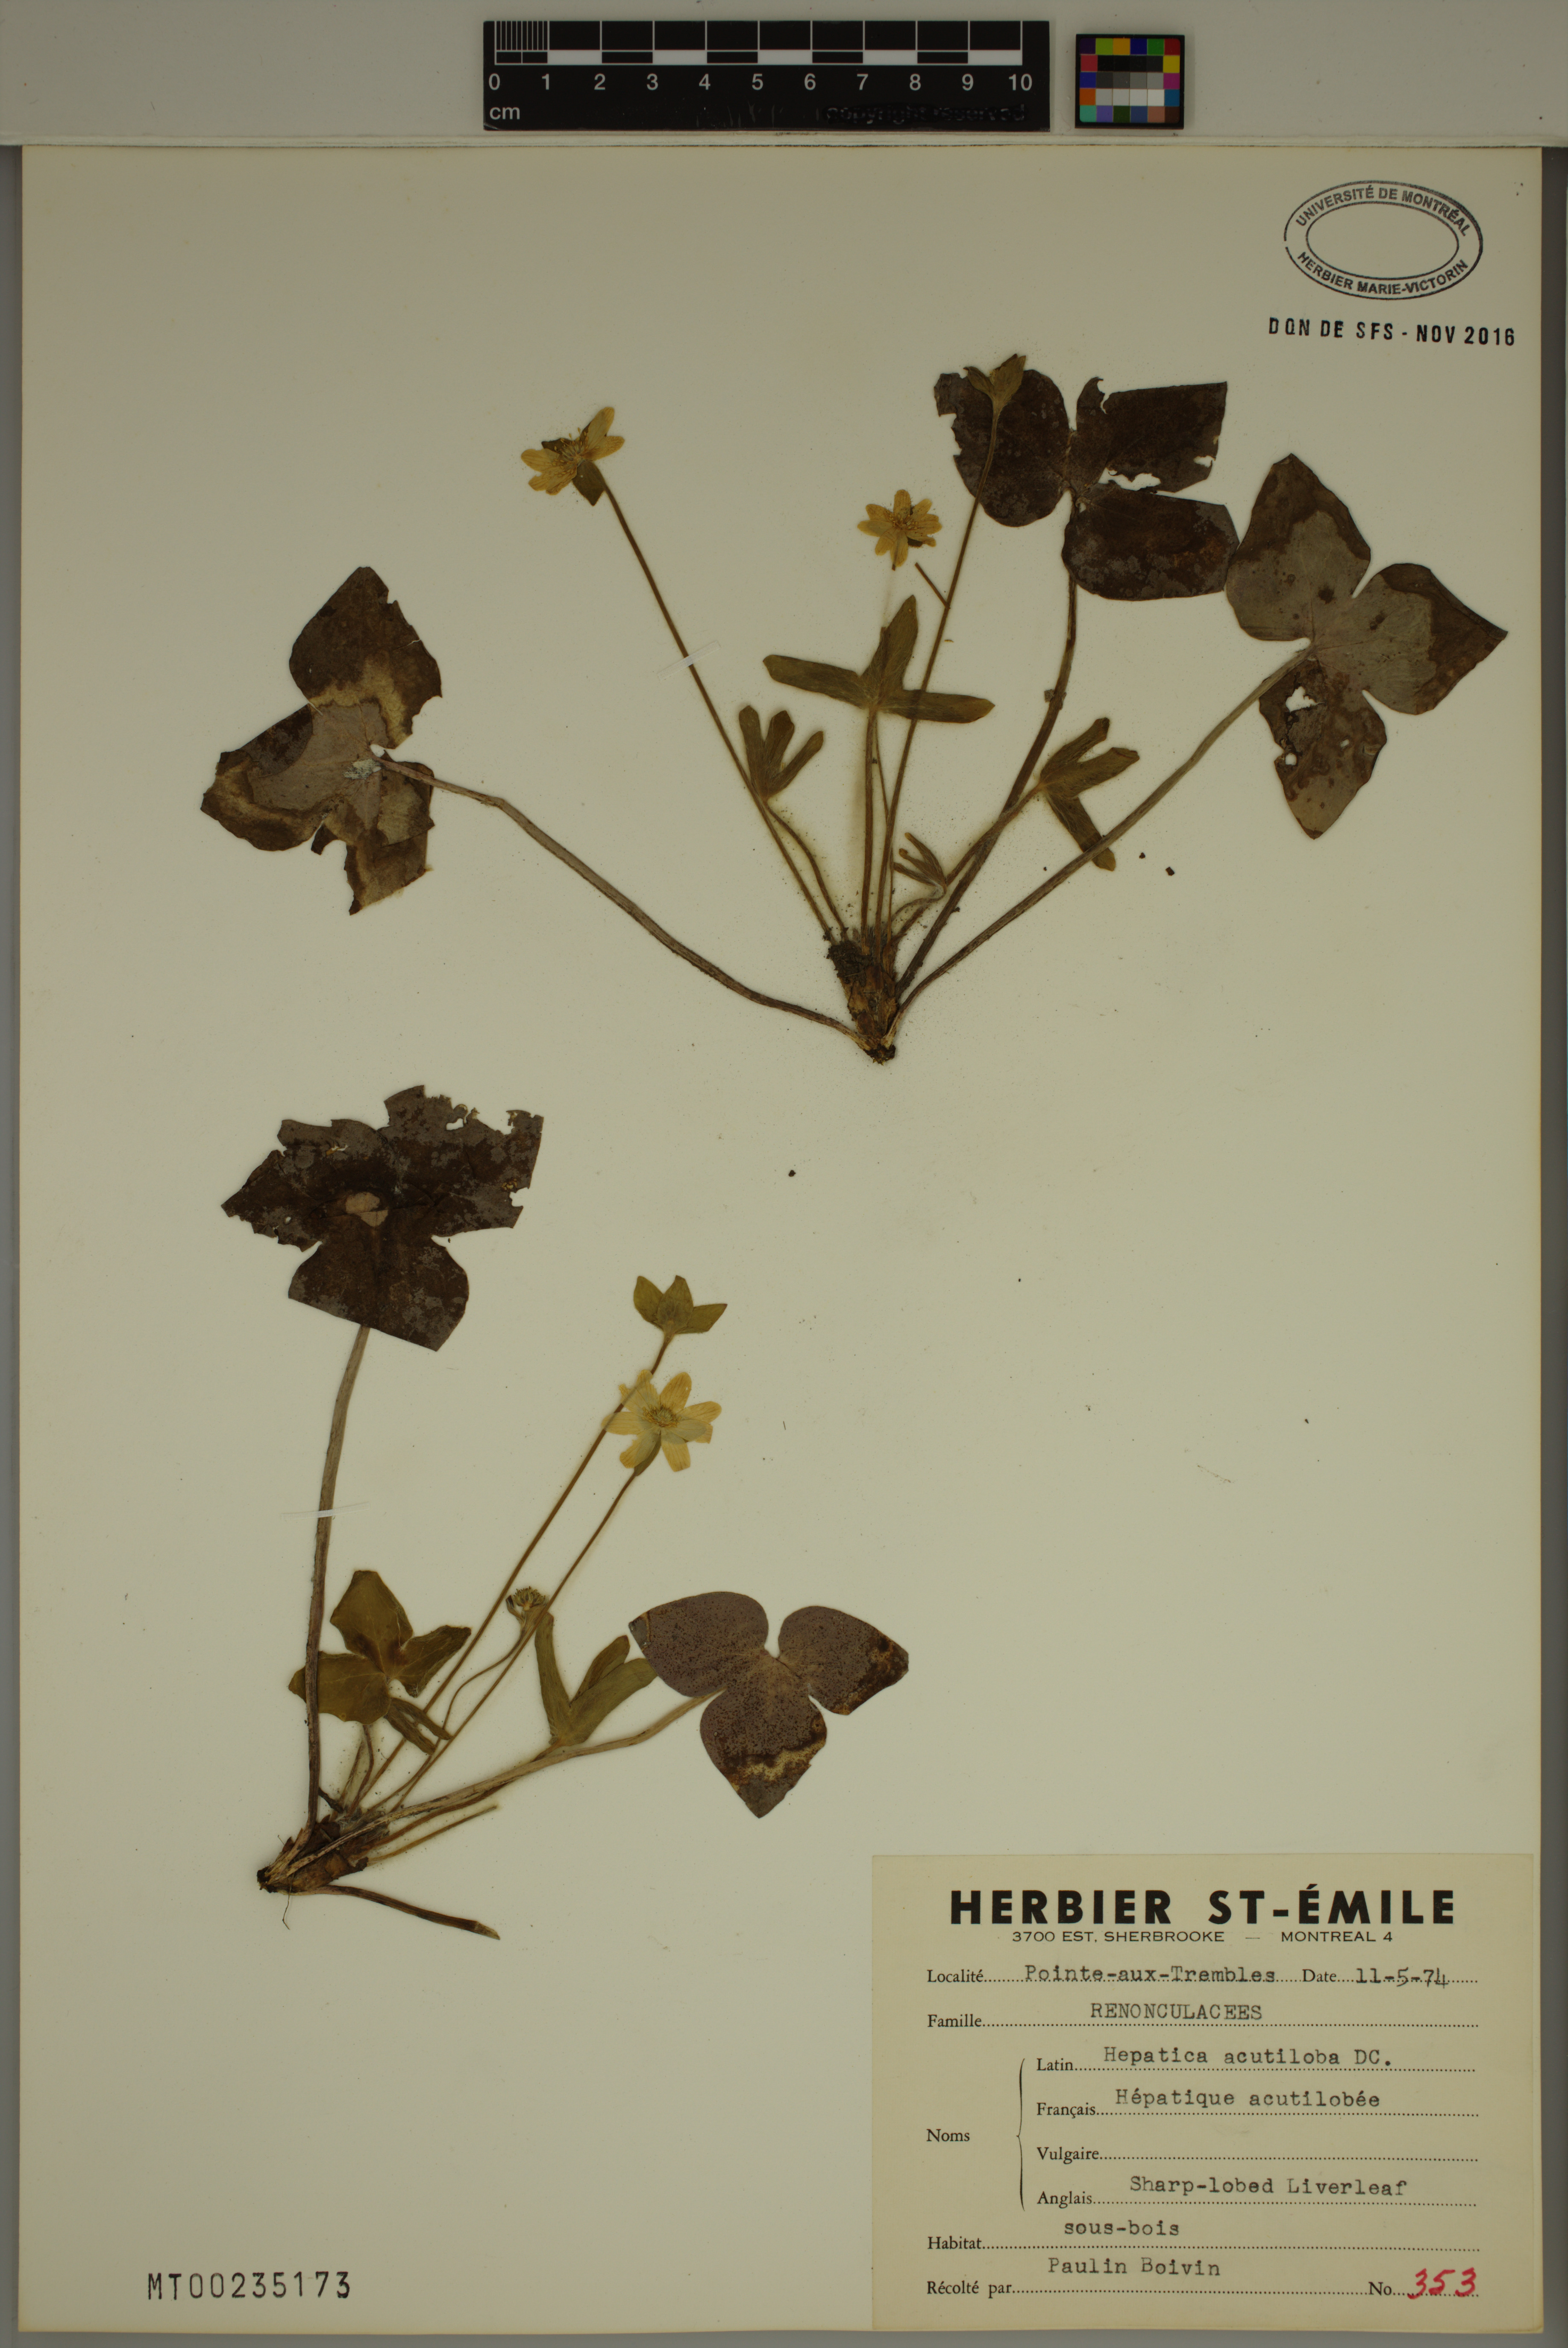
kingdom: Plantae
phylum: Tracheophyta
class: Magnoliopsida
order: Ranunculales
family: Ranunculaceae
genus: Hepatica
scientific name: Hepatica acutiloba
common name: Sharp-lobed hepatica
